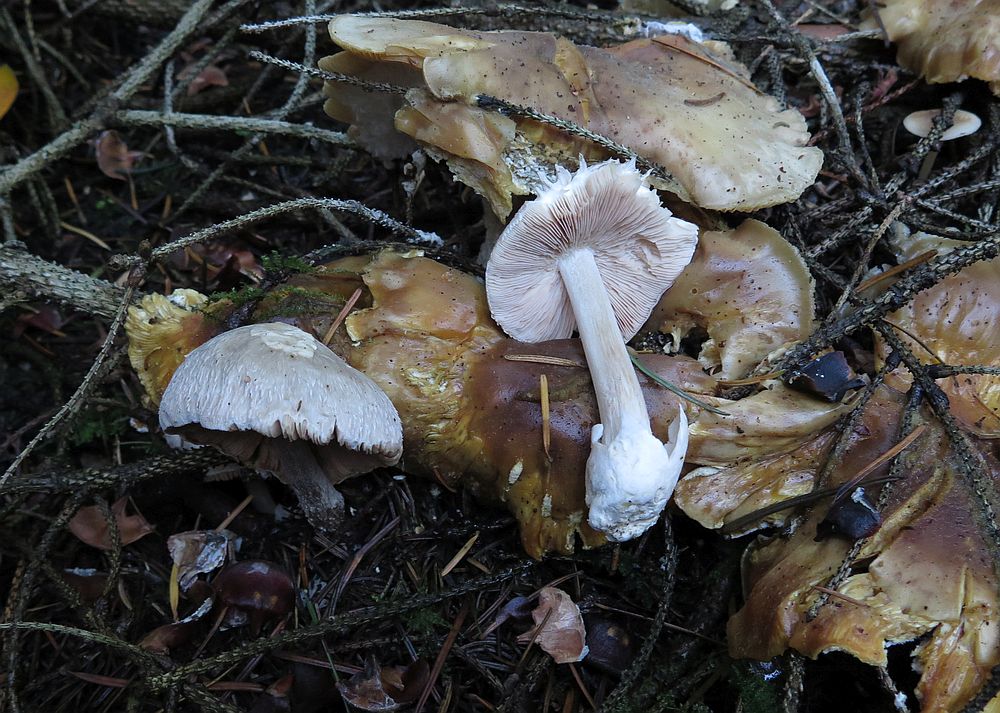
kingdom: Fungi
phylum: Basidiomycota
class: Agaricomycetes
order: Agaricales
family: Pluteaceae
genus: Volvariella
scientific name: Volvariella surrecta
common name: snyltende posesvamp
